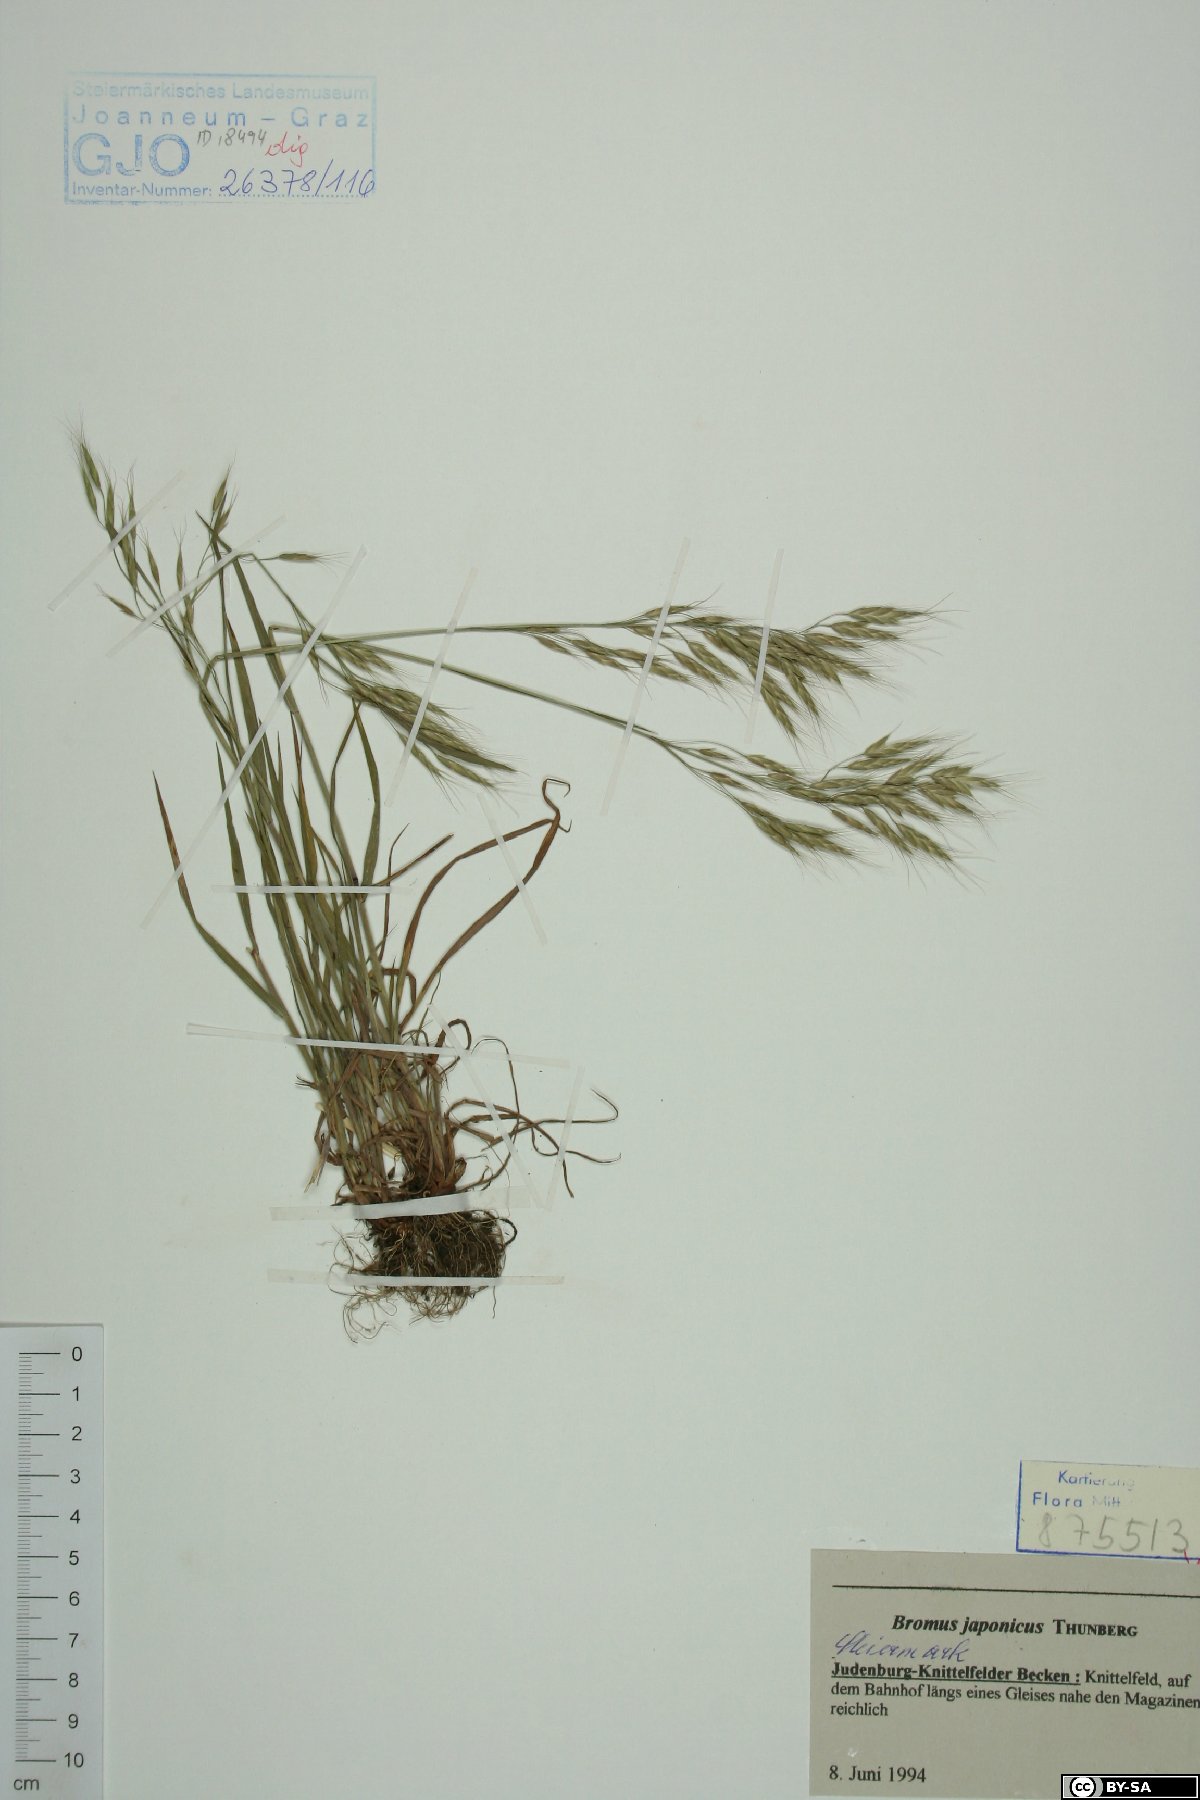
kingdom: Plantae
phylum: Tracheophyta
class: Liliopsida
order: Poales
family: Poaceae
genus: Bromus
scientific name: Bromus japonicus
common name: Japanese brome
